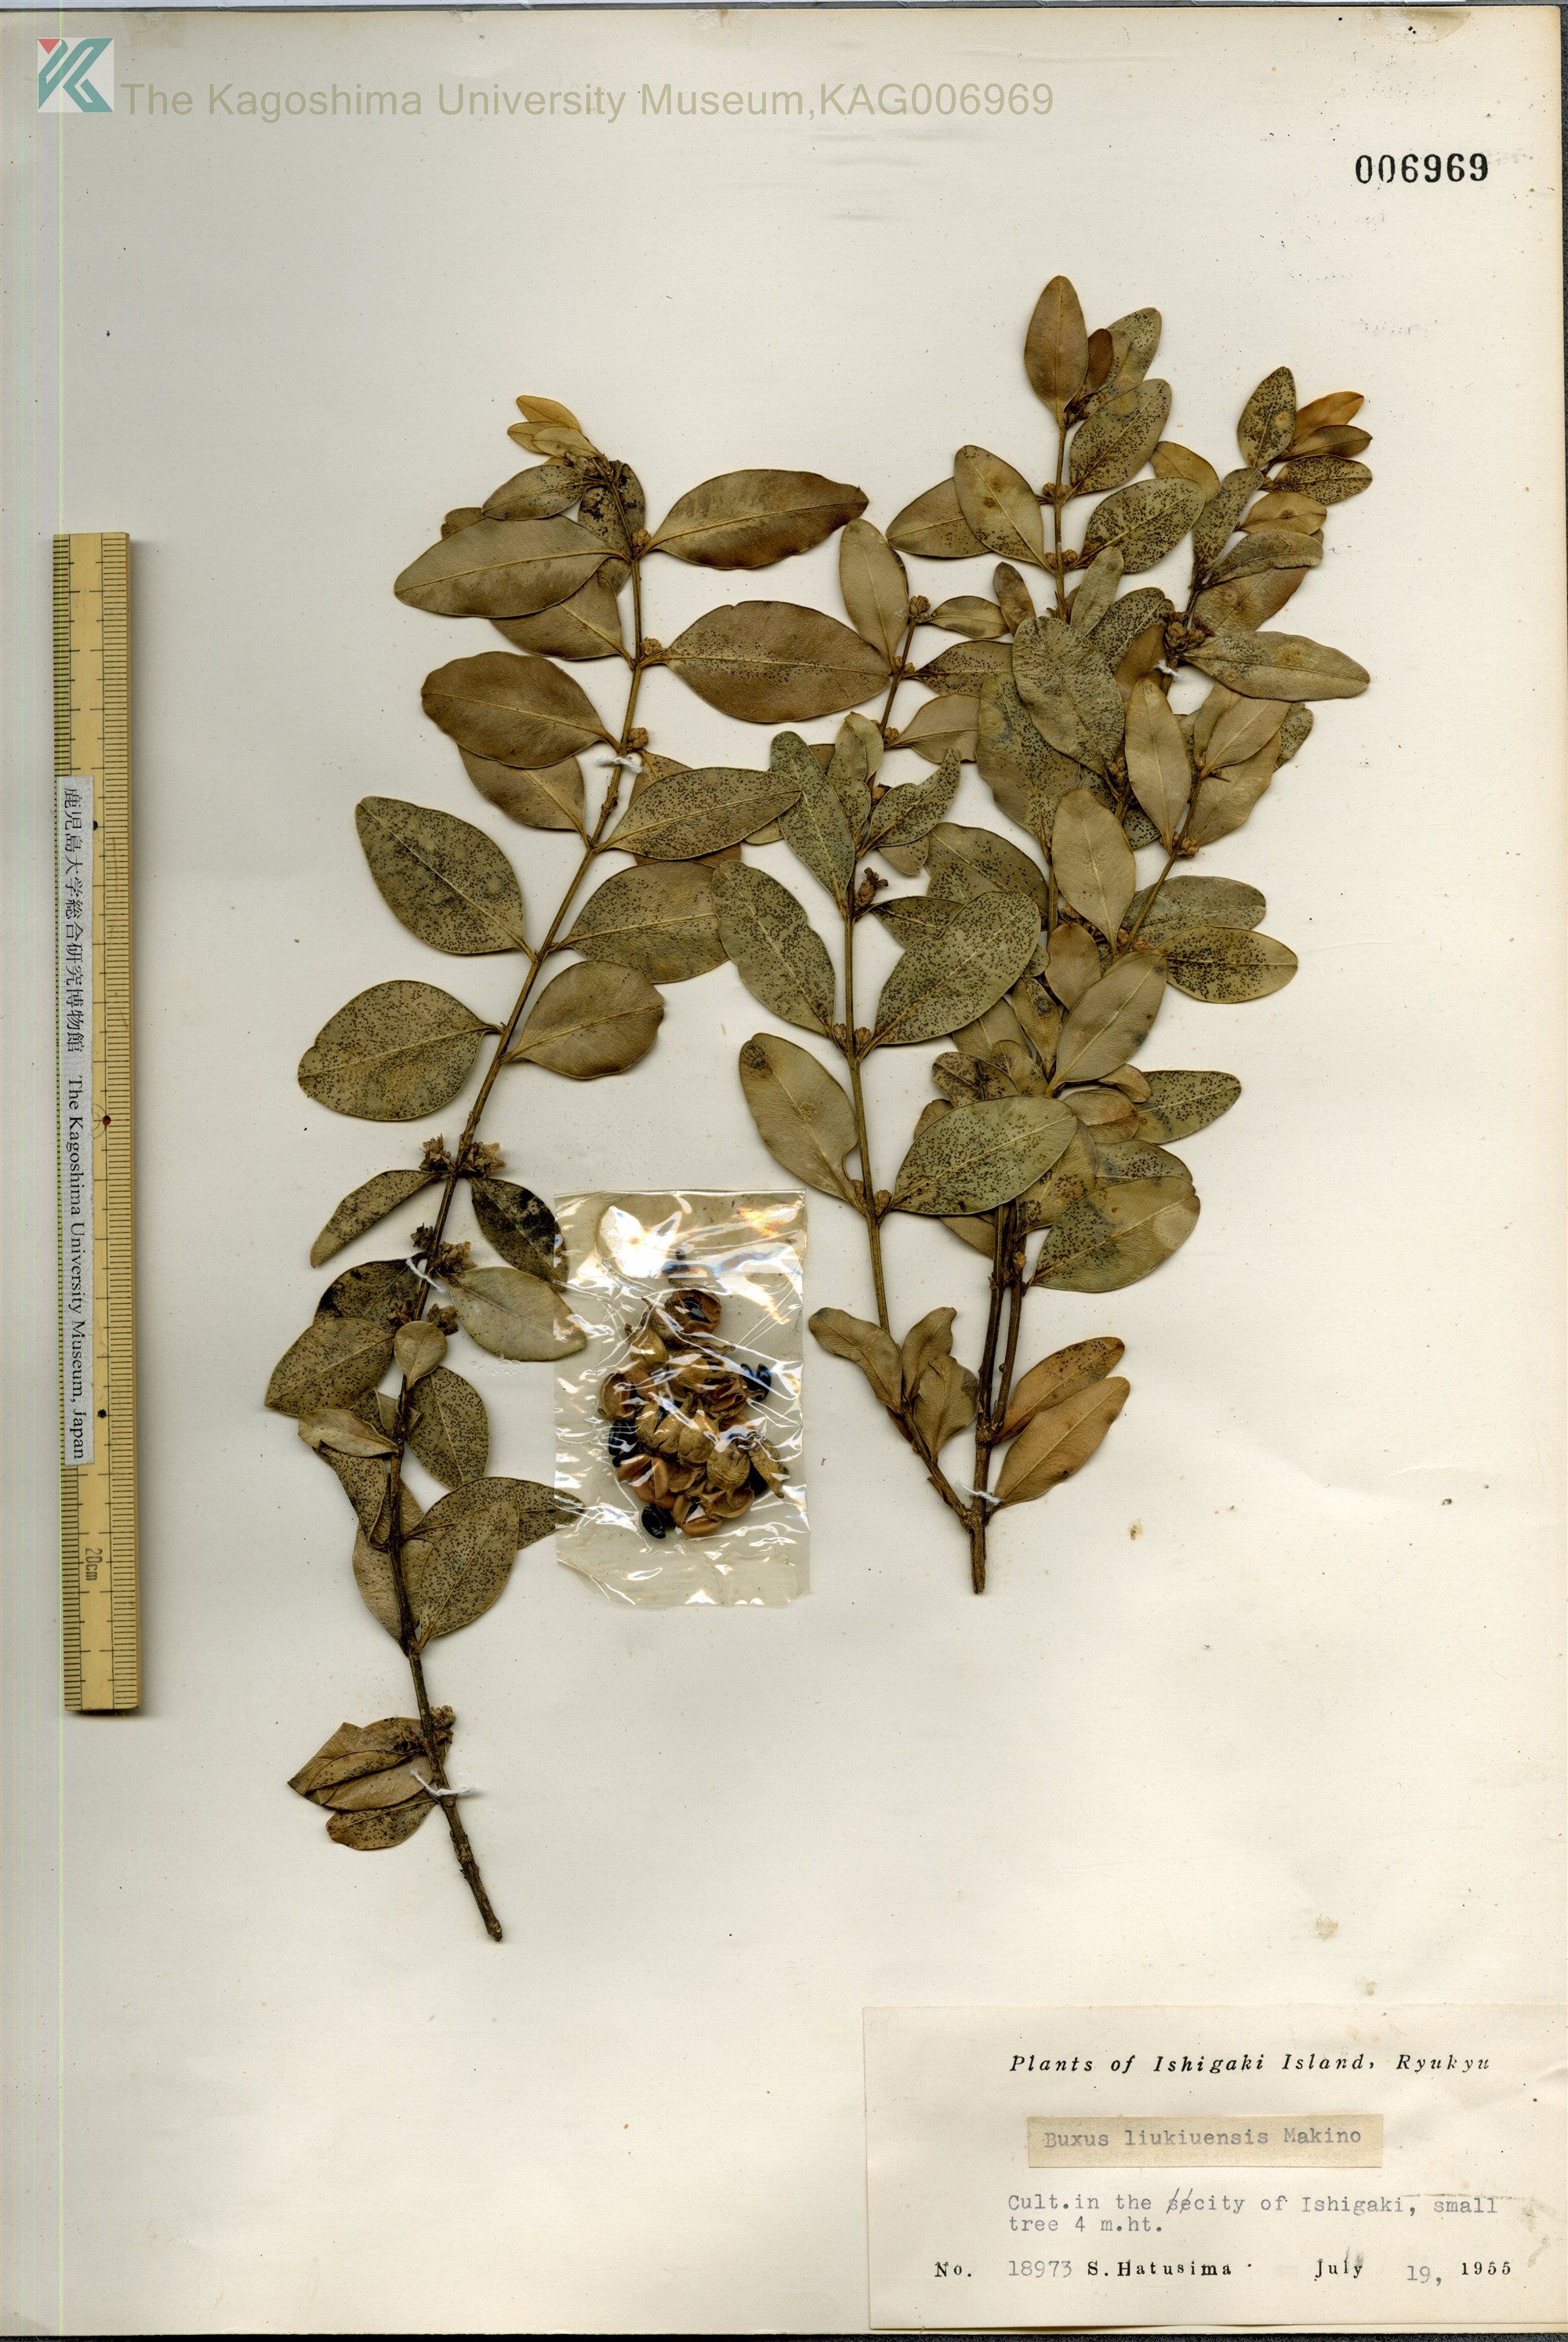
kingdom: Plantae
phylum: Tracheophyta
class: Magnoliopsida
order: Buxales
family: Buxaceae
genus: Buxus
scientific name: Buxus liukiuensis
